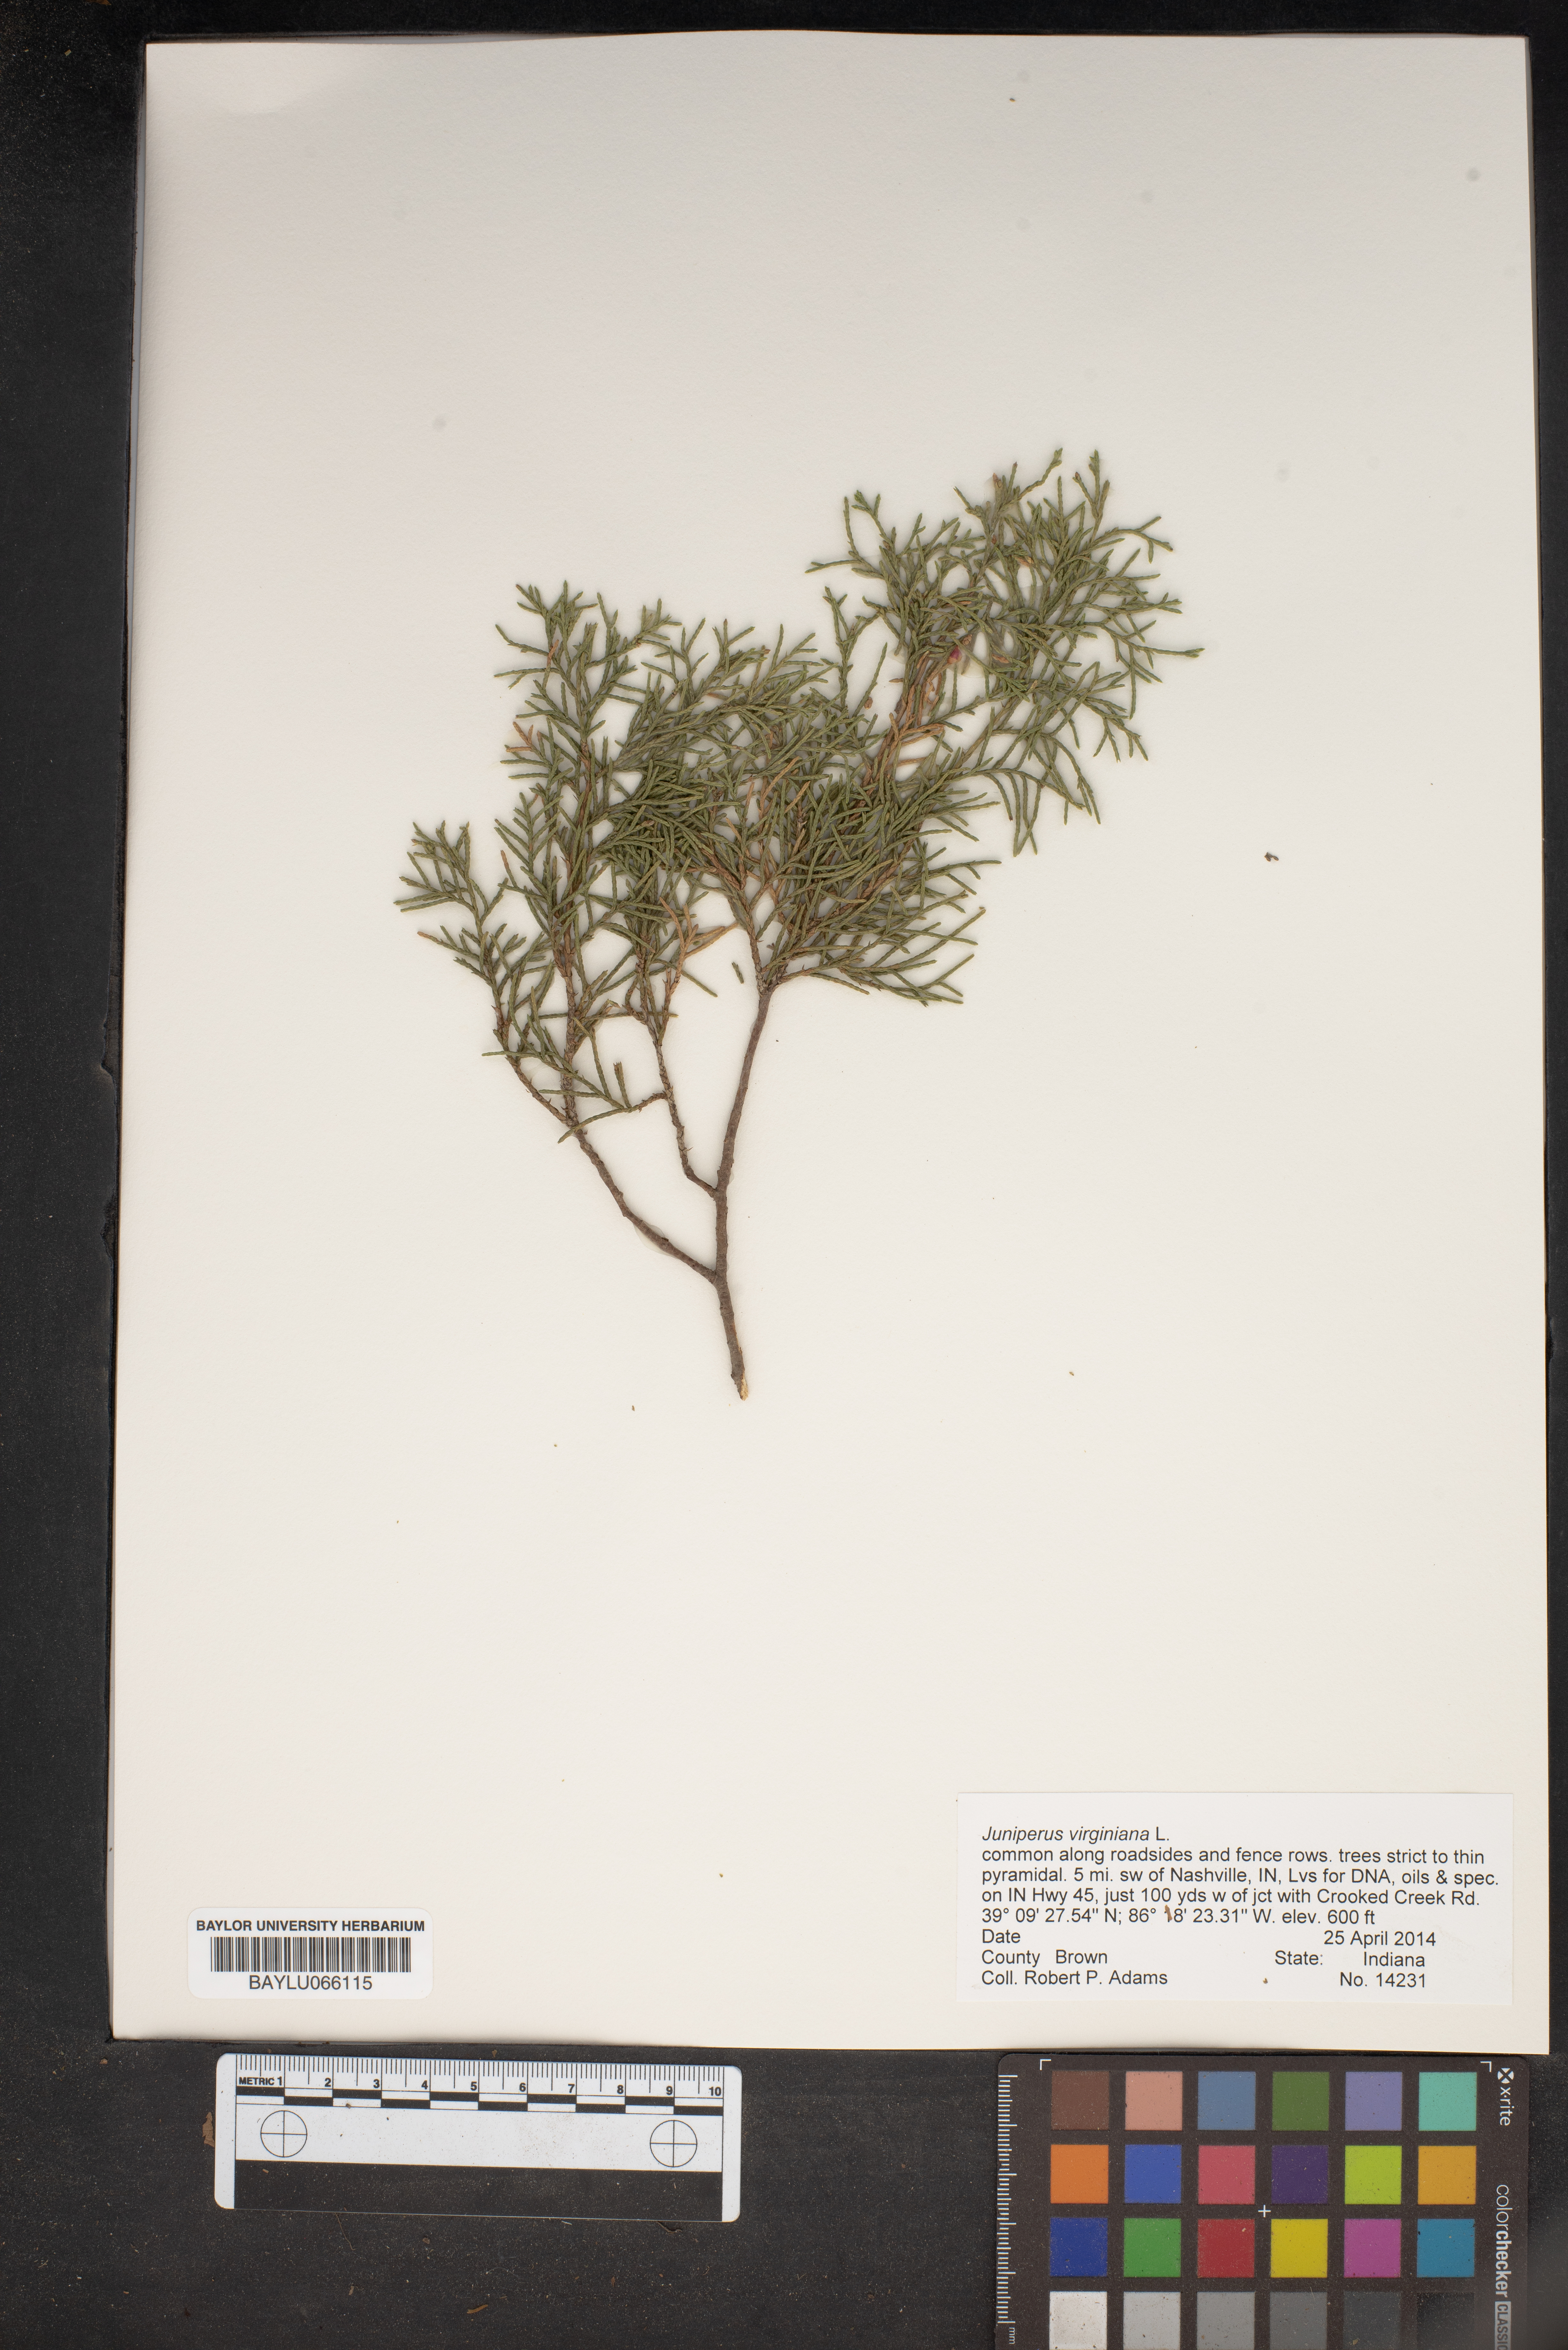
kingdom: Plantae
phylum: Tracheophyta
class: Pinopsida
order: Pinales
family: Cupressaceae
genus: Juniperus
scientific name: Juniperus virginiana
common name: Red juniper
